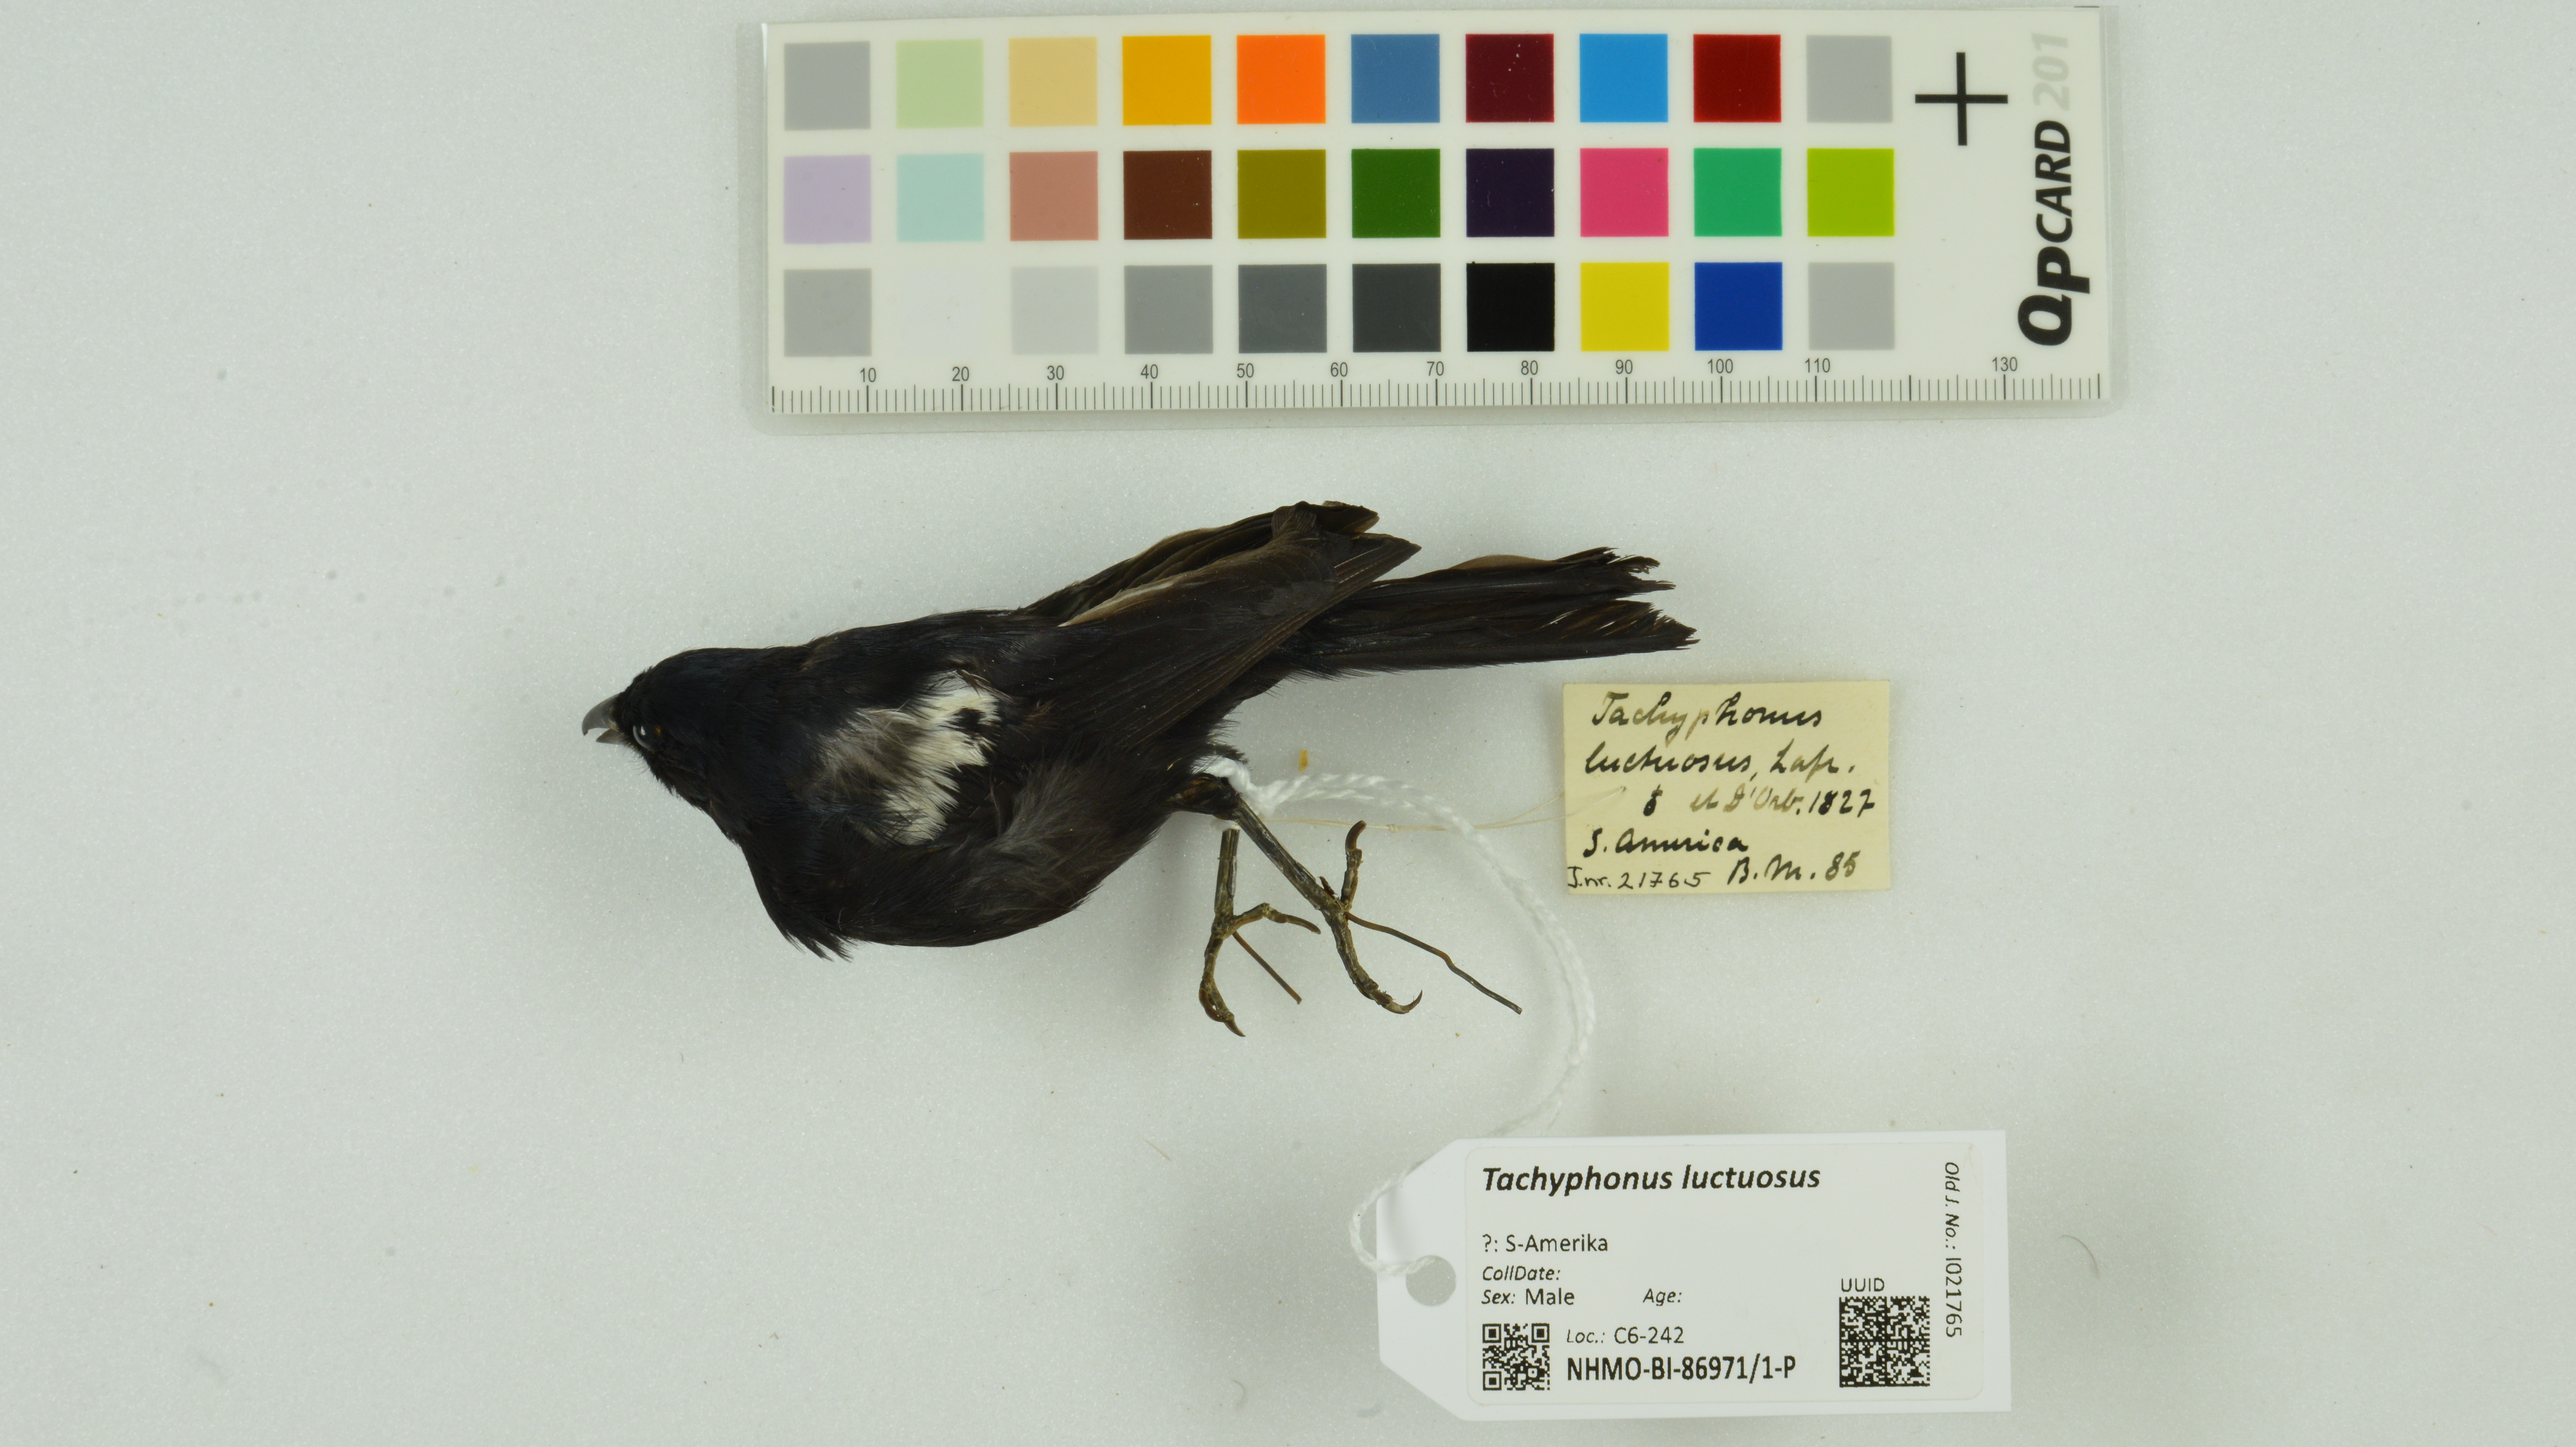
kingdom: Animalia
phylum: Chordata
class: Aves
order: Passeriformes
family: Thraupidae
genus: Loriotus
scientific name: Loriotus luctuosus
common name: White-shouldered tanager
